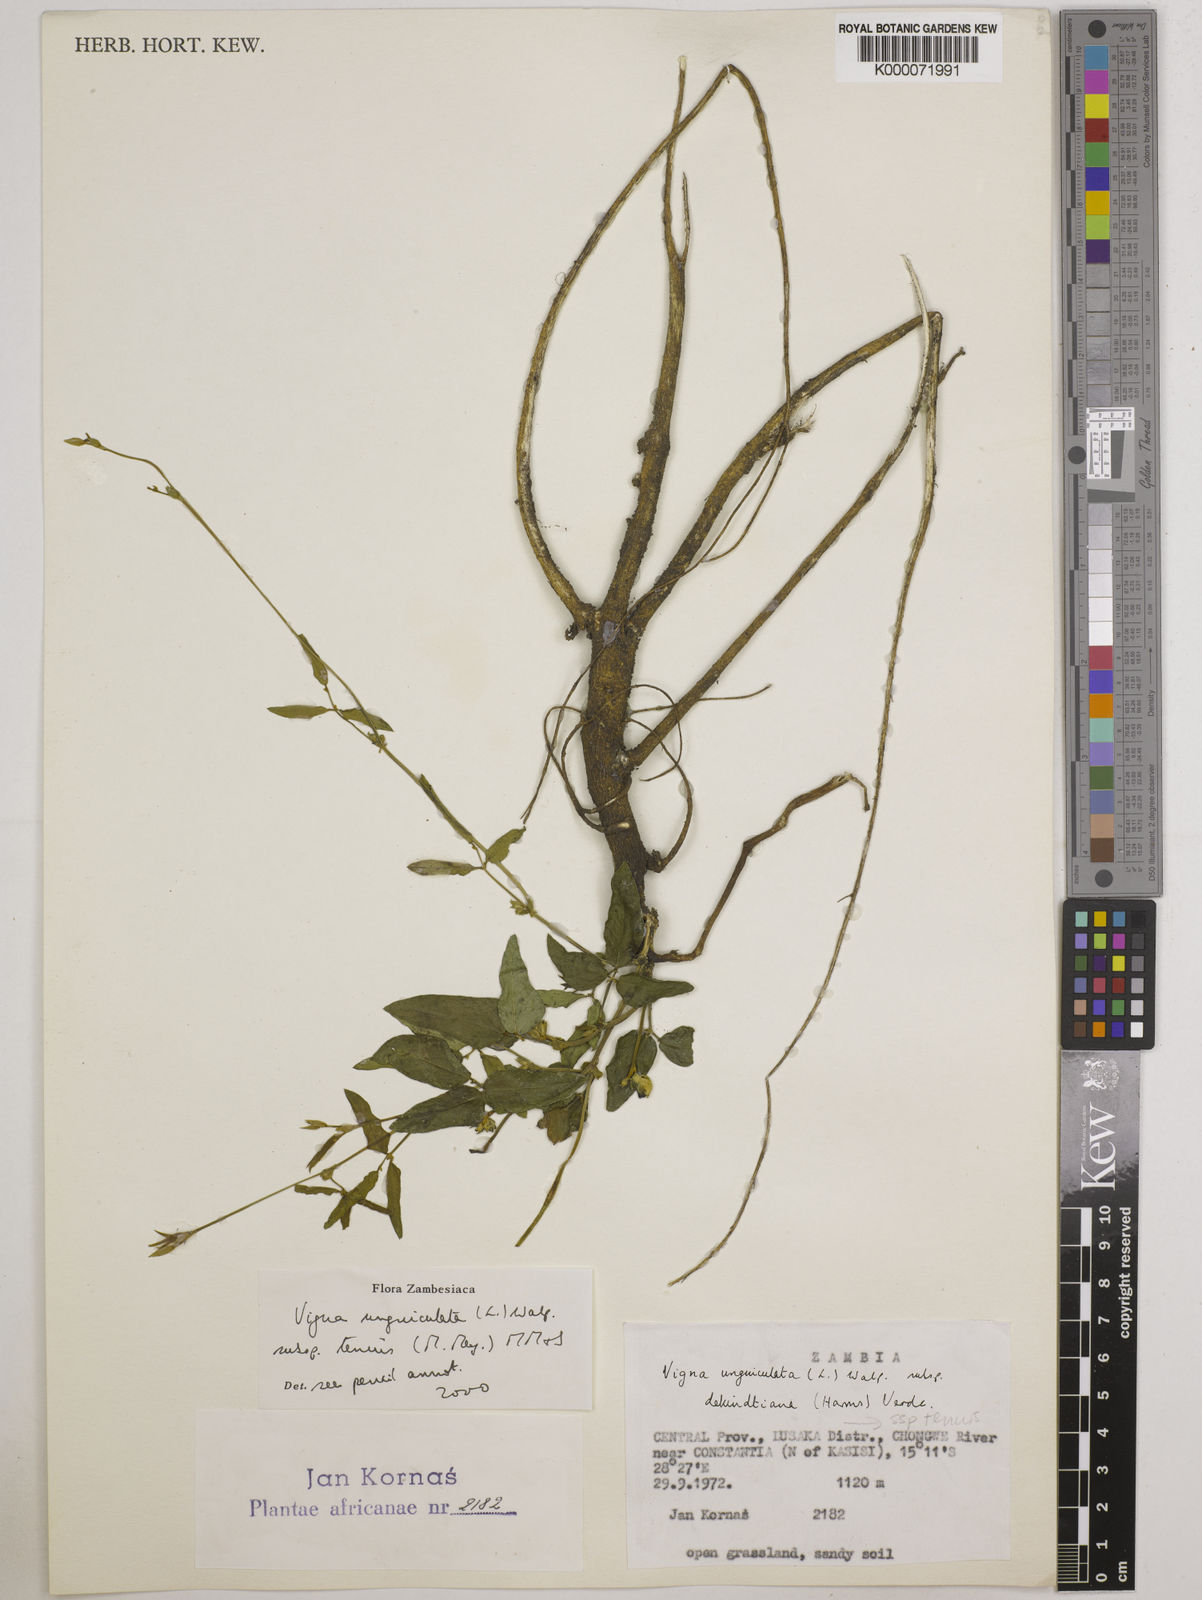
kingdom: Plantae
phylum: Tracheophyta
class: Magnoliopsida
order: Fabales
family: Fabaceae
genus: Vigna
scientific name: Vigna unguiculata
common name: Cowpea
